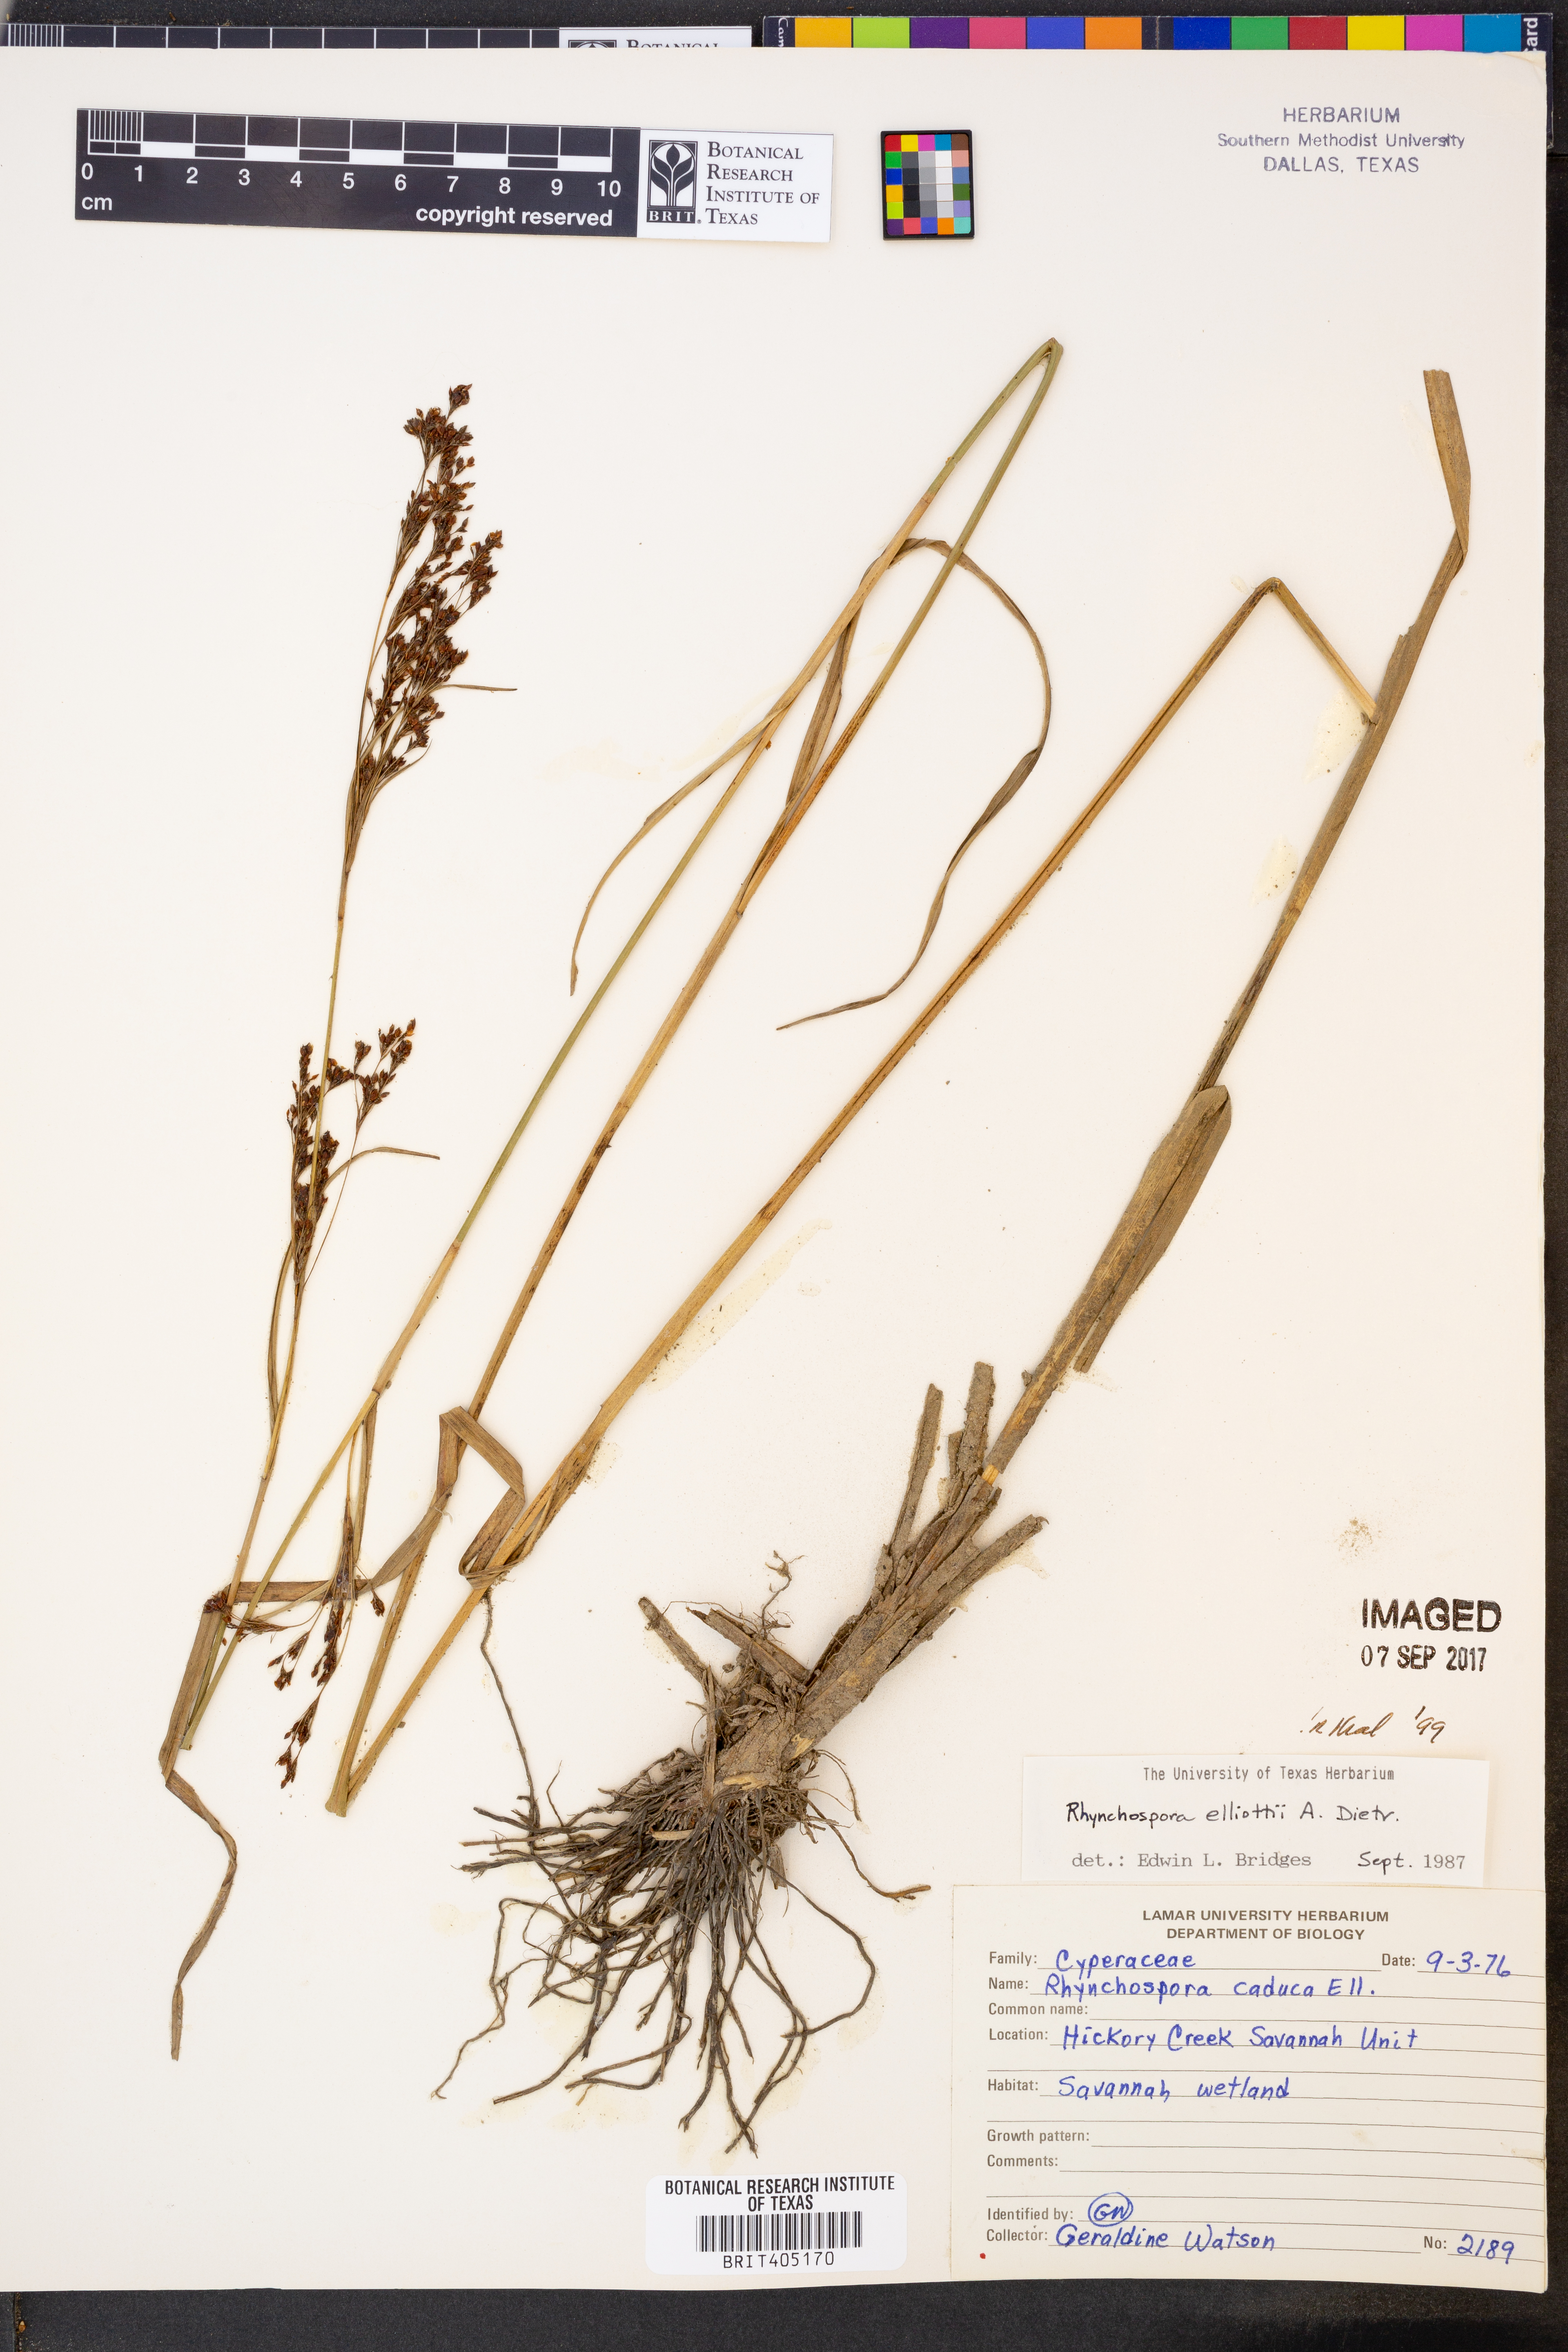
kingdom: Plantae
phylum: Tracheophyta
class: Liliopsida
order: Poales
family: Cyperaceae
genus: Rhynchospora
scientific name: Rhynchospora elliottii
